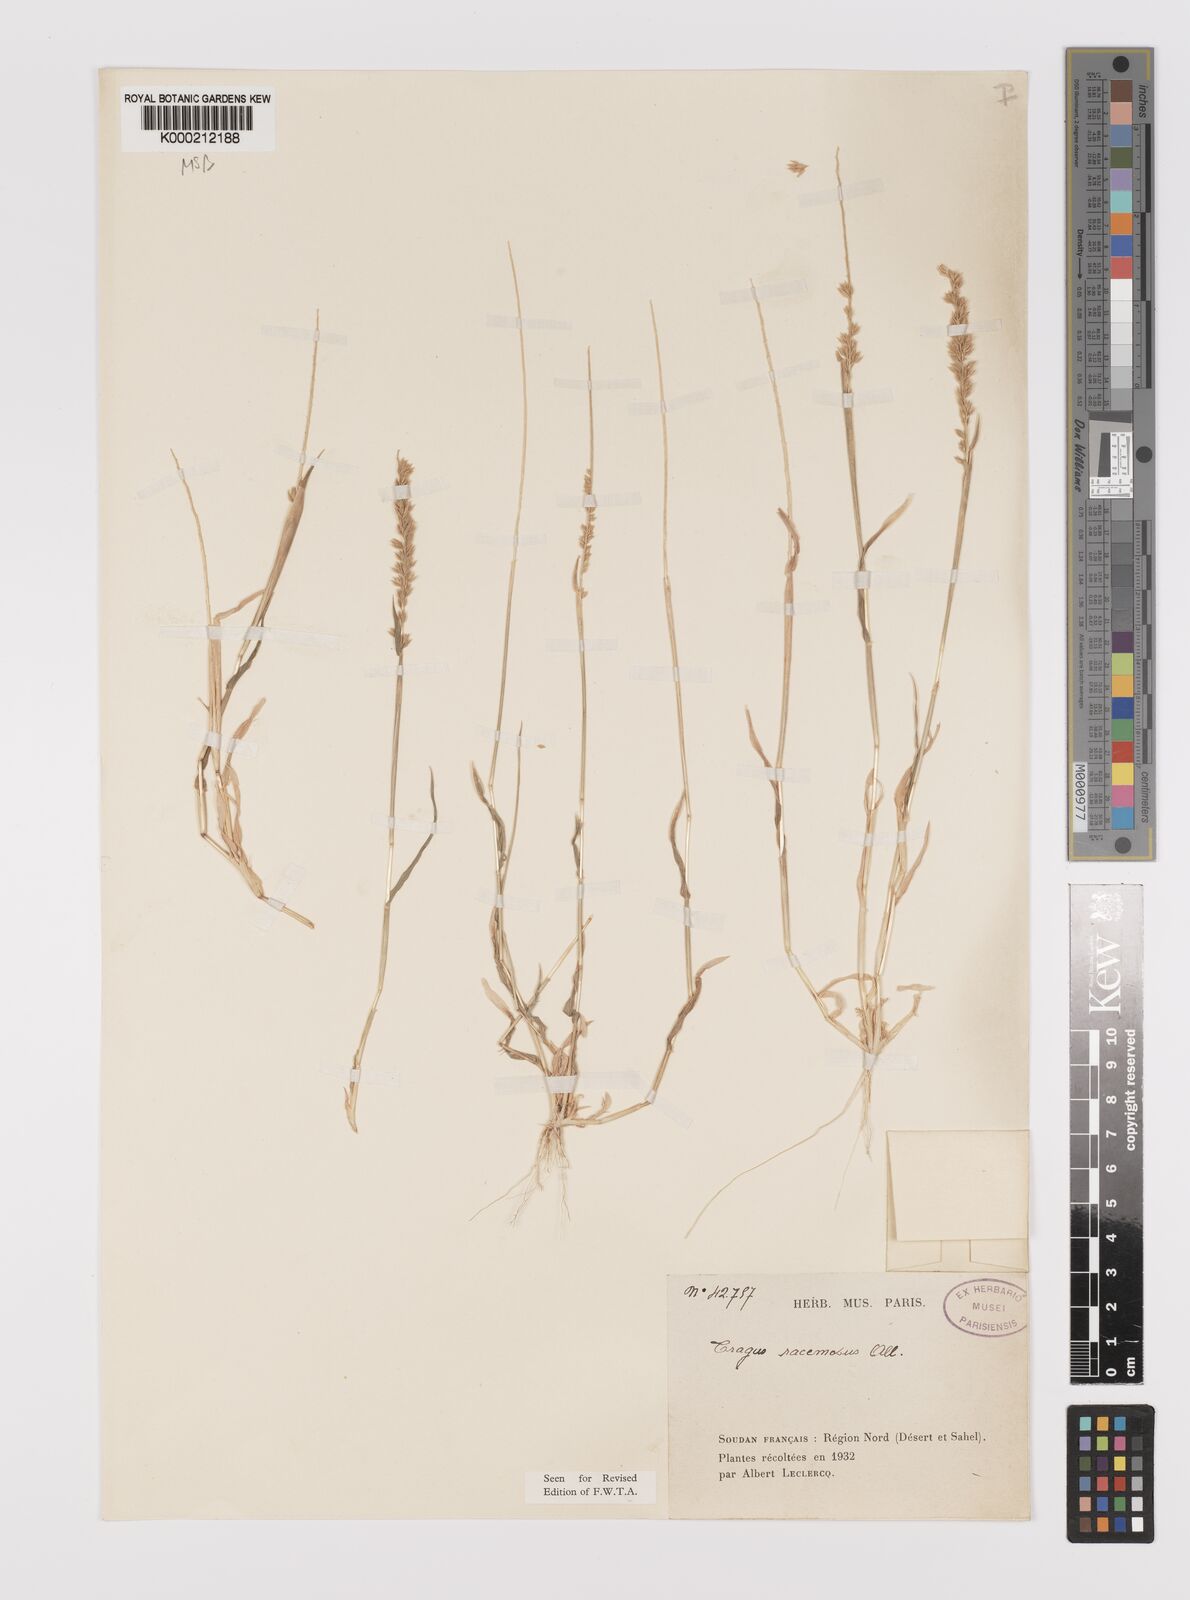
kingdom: Plantae
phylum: Tracheophyta
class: Liliopsida
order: Poales
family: Poaceae
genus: Tragus
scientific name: Tragus racemosus
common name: European bur-grass
